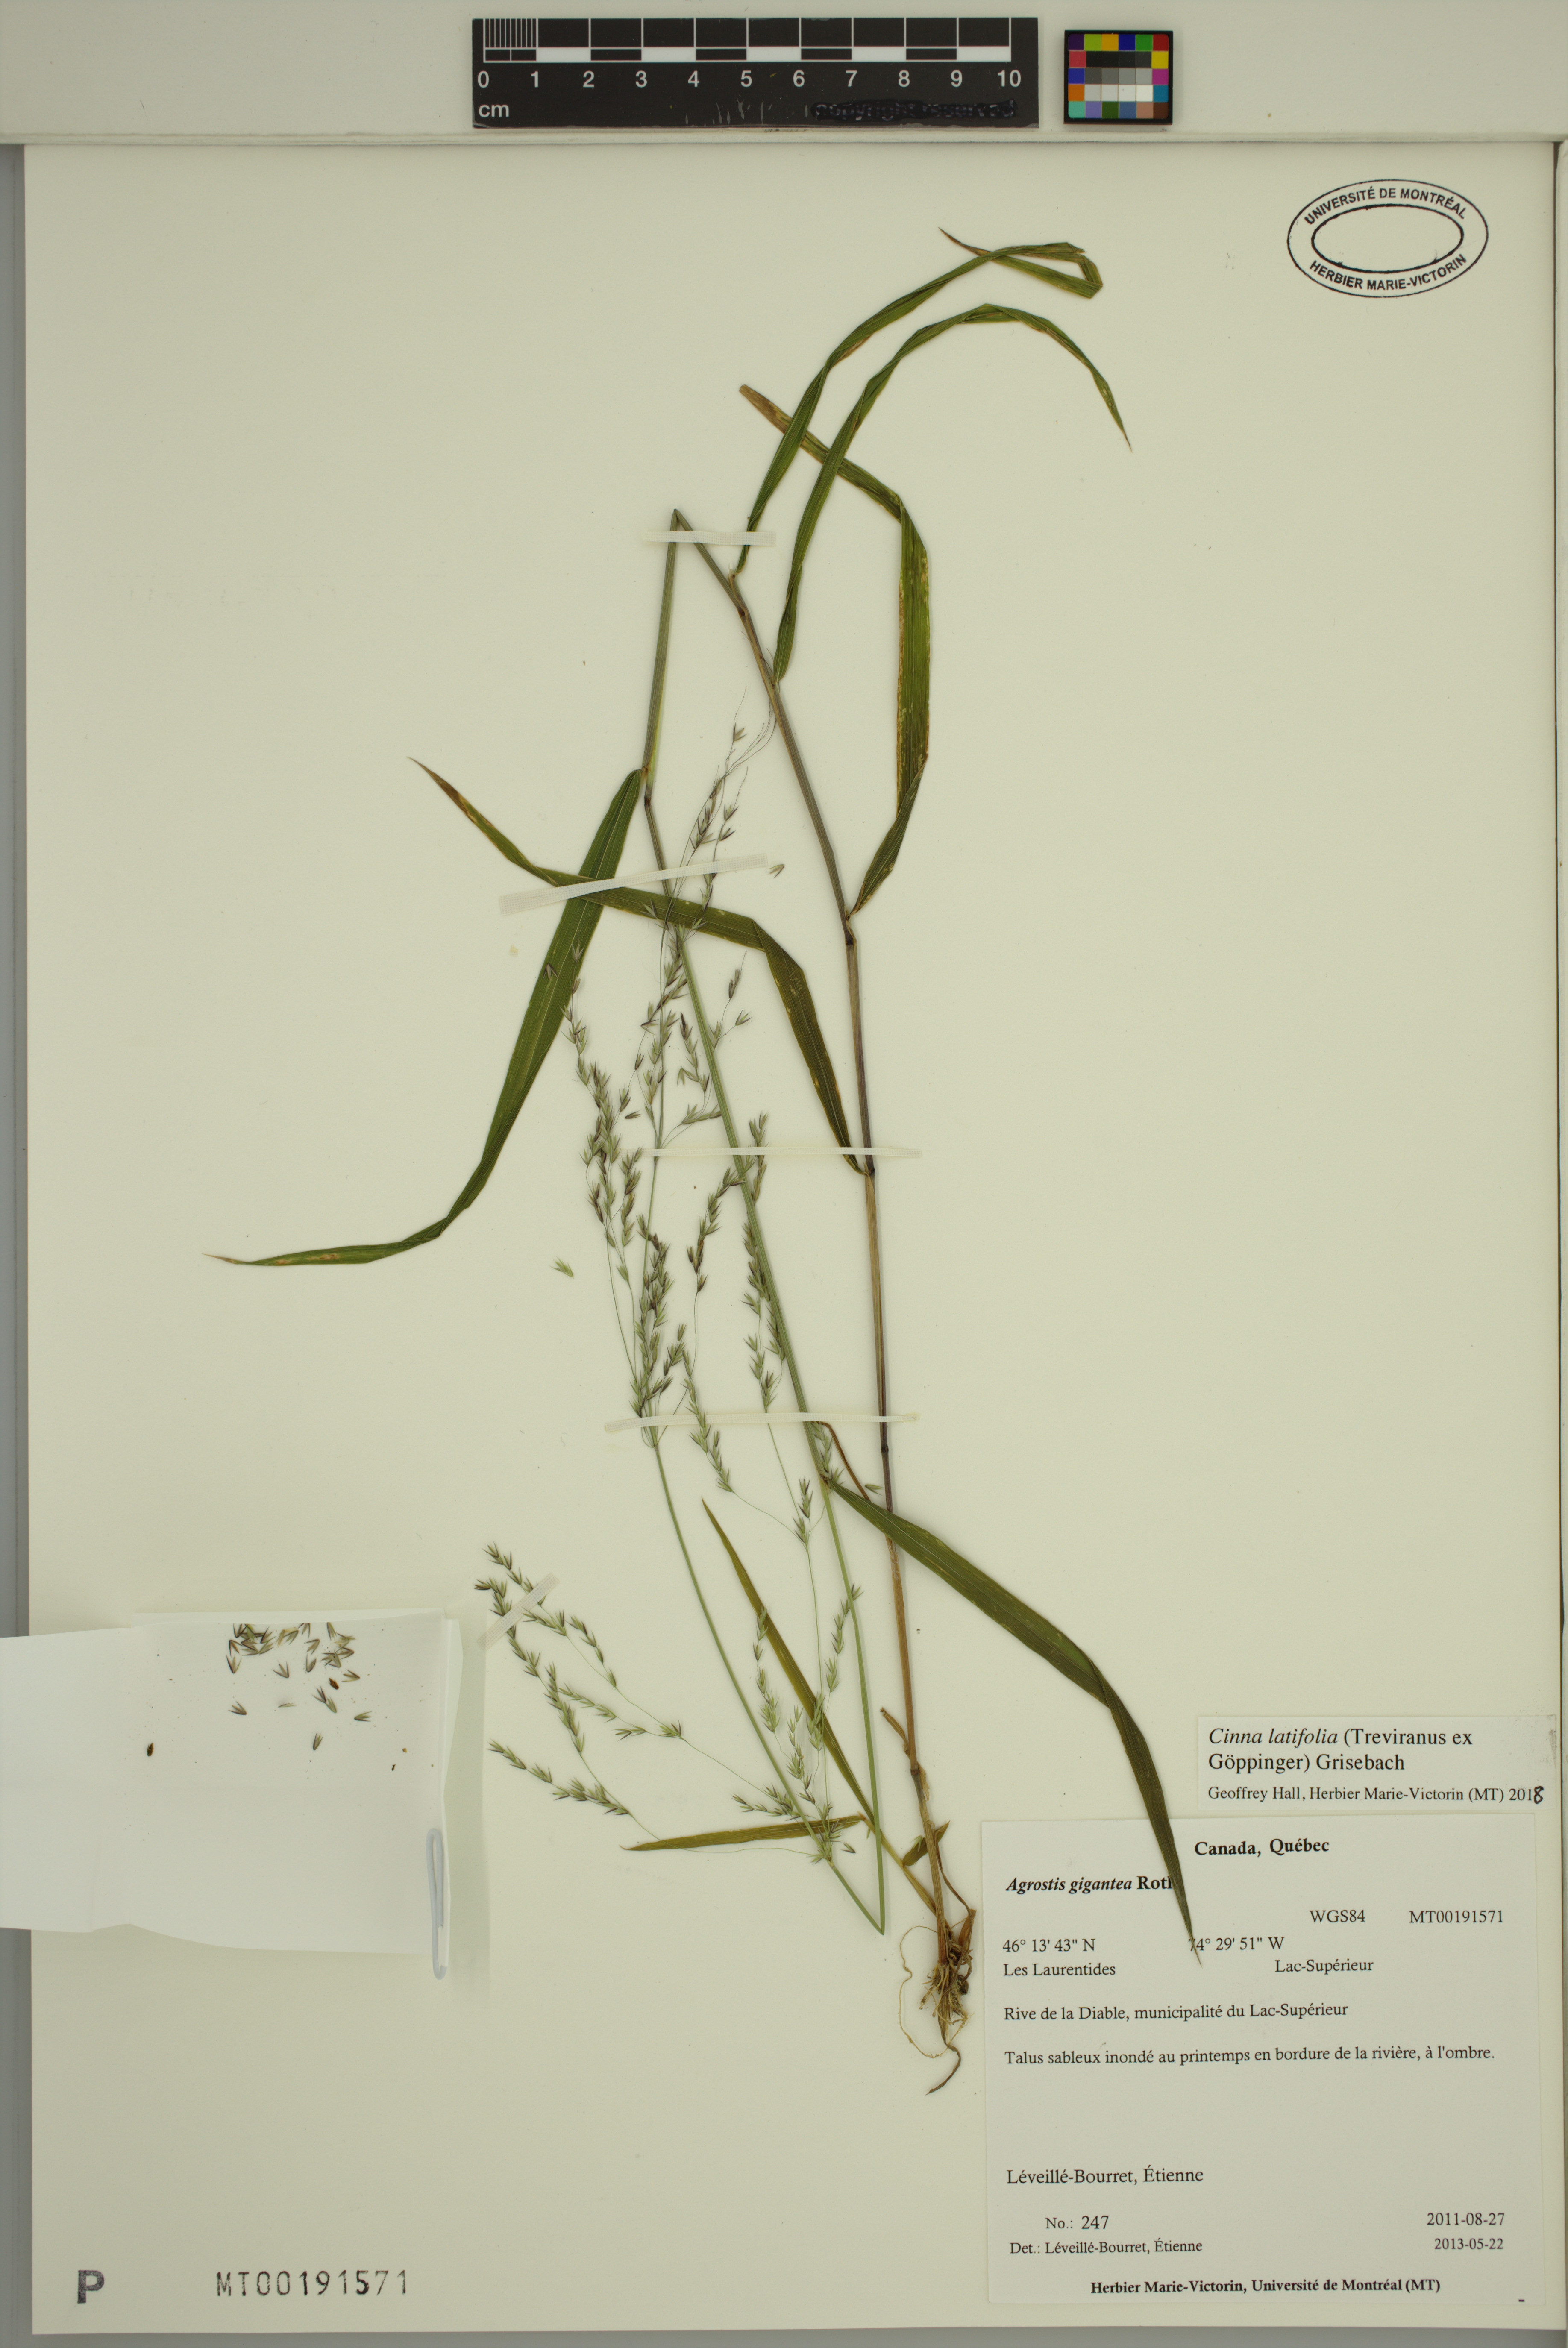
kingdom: Plantae
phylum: Tracheophyta
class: Liliopsida
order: Poales
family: Poaceae
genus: Cinna
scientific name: Cinna latifolia
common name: Drooping woodreed
